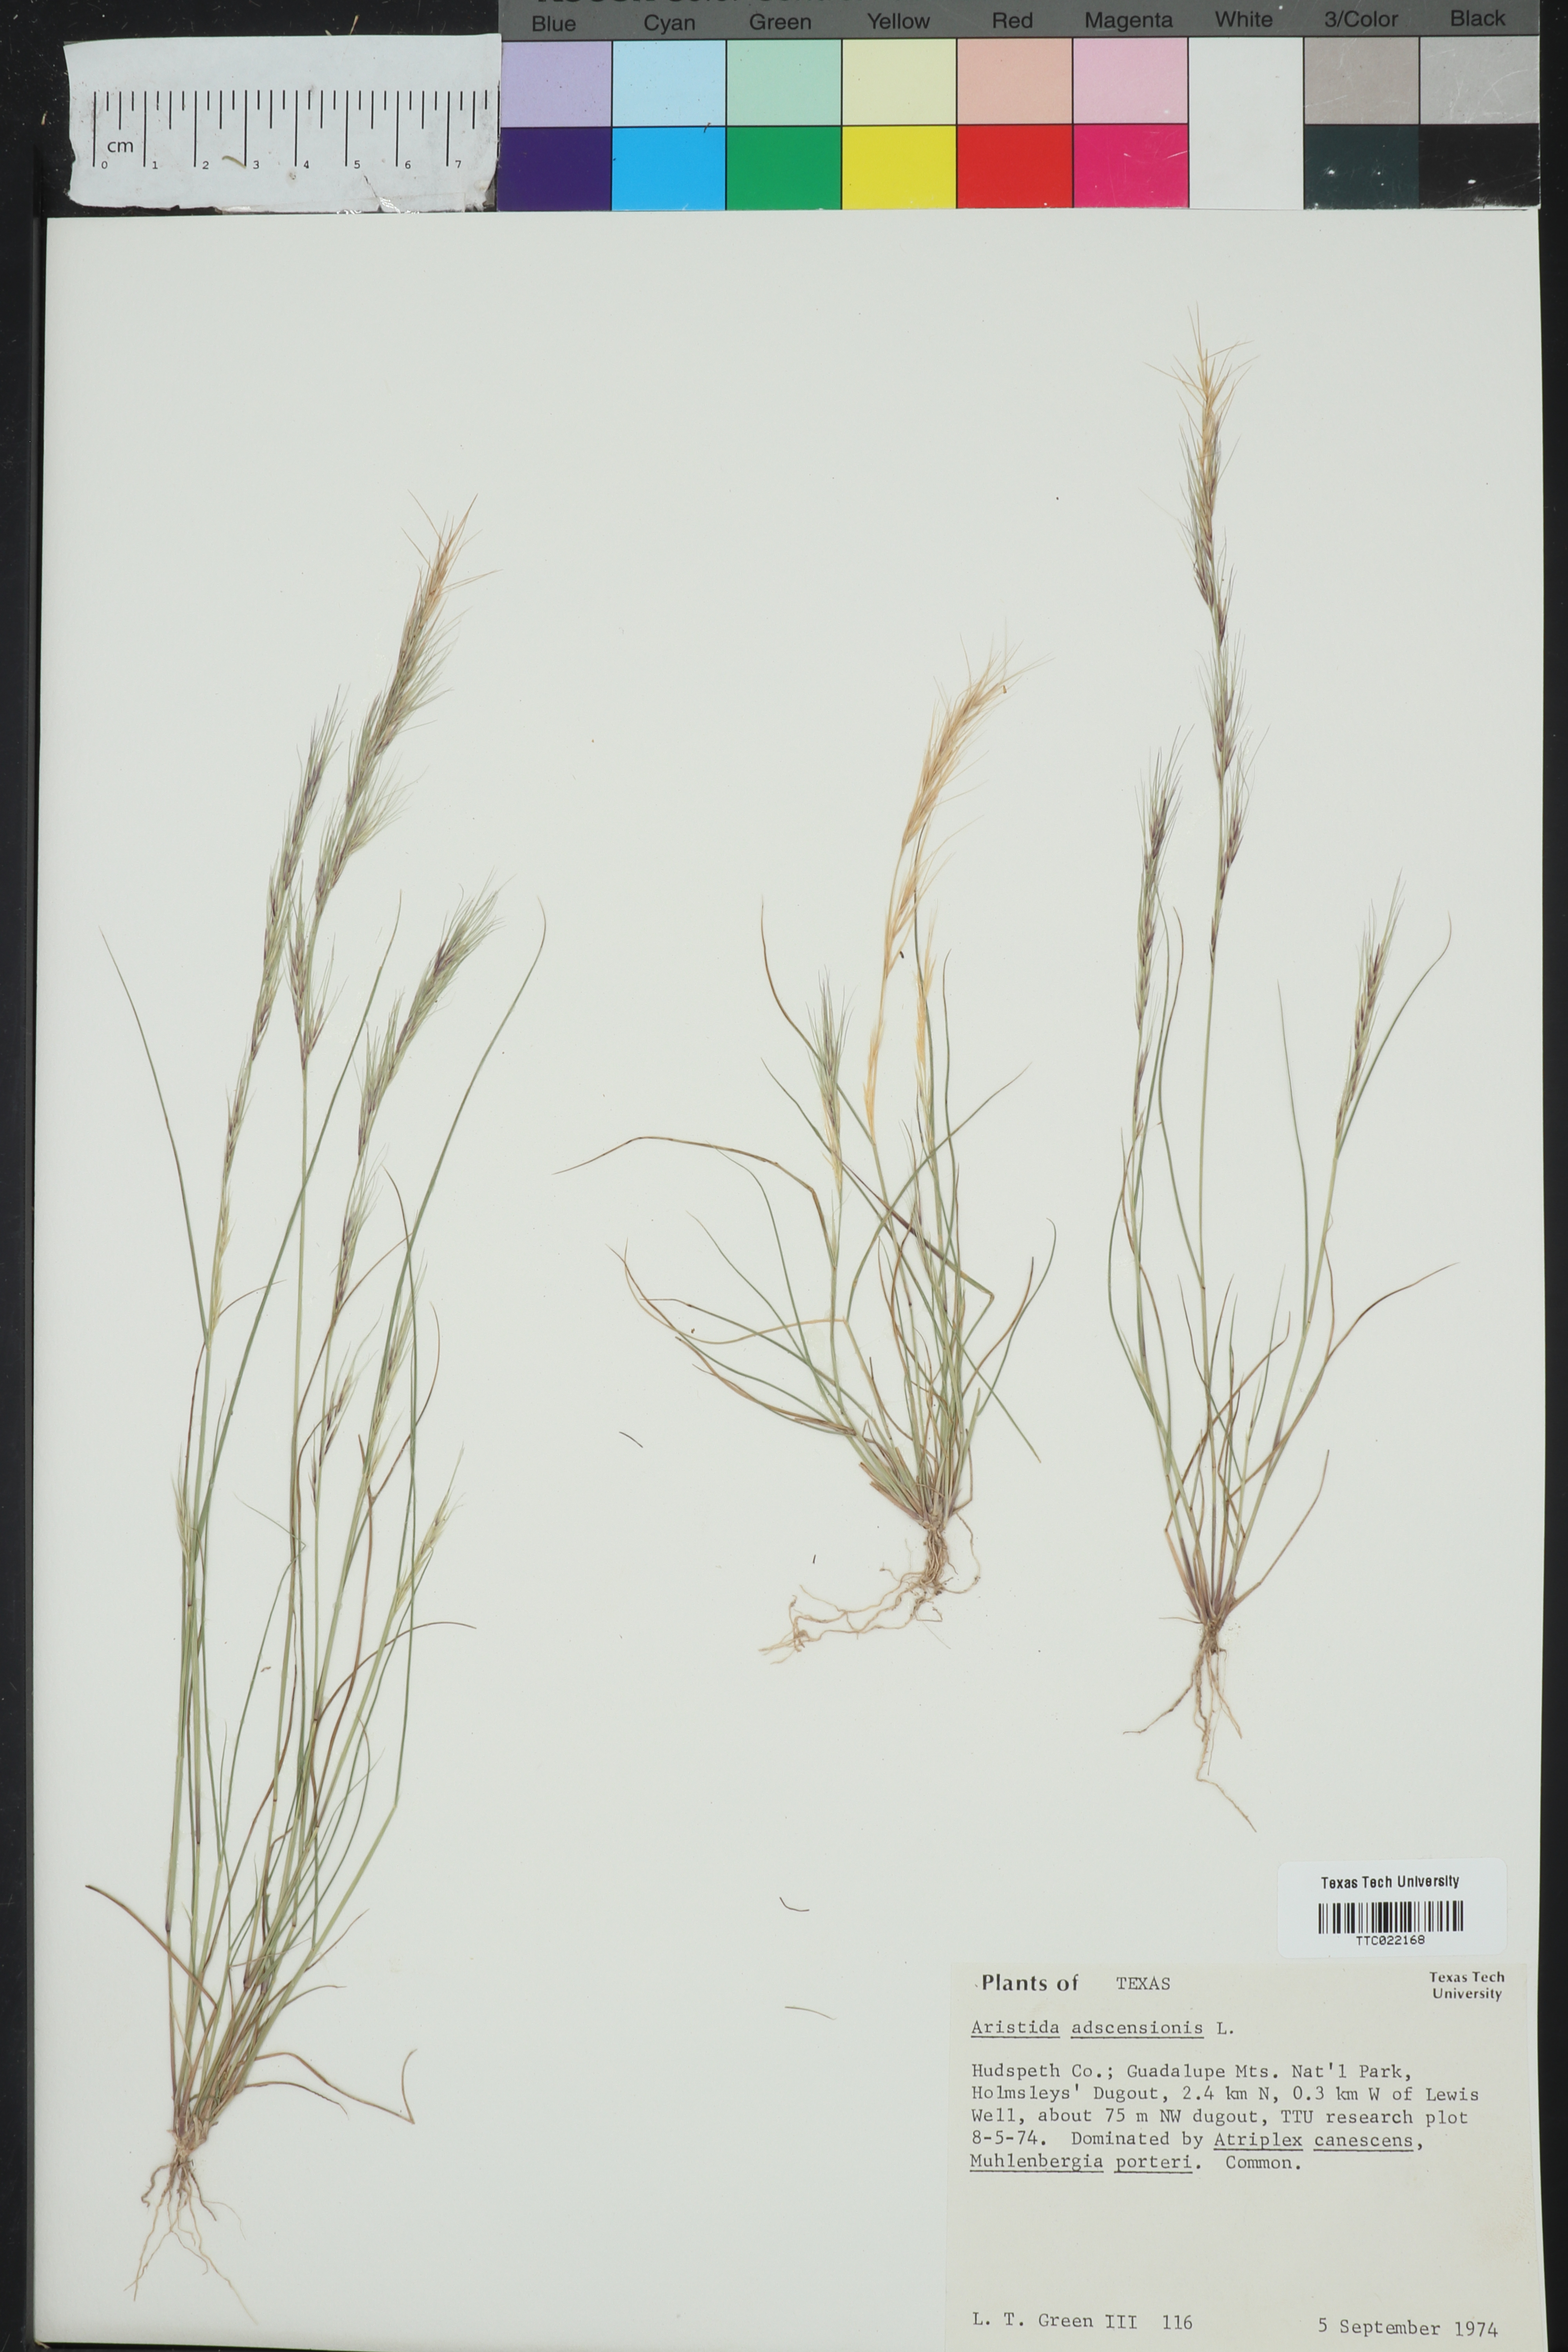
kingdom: Plantae
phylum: Tracheophyta
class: Liliopsida
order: Poales
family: Poaceae
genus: Aristida
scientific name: Aristida adscensionis
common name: Sixweeks threeawn
